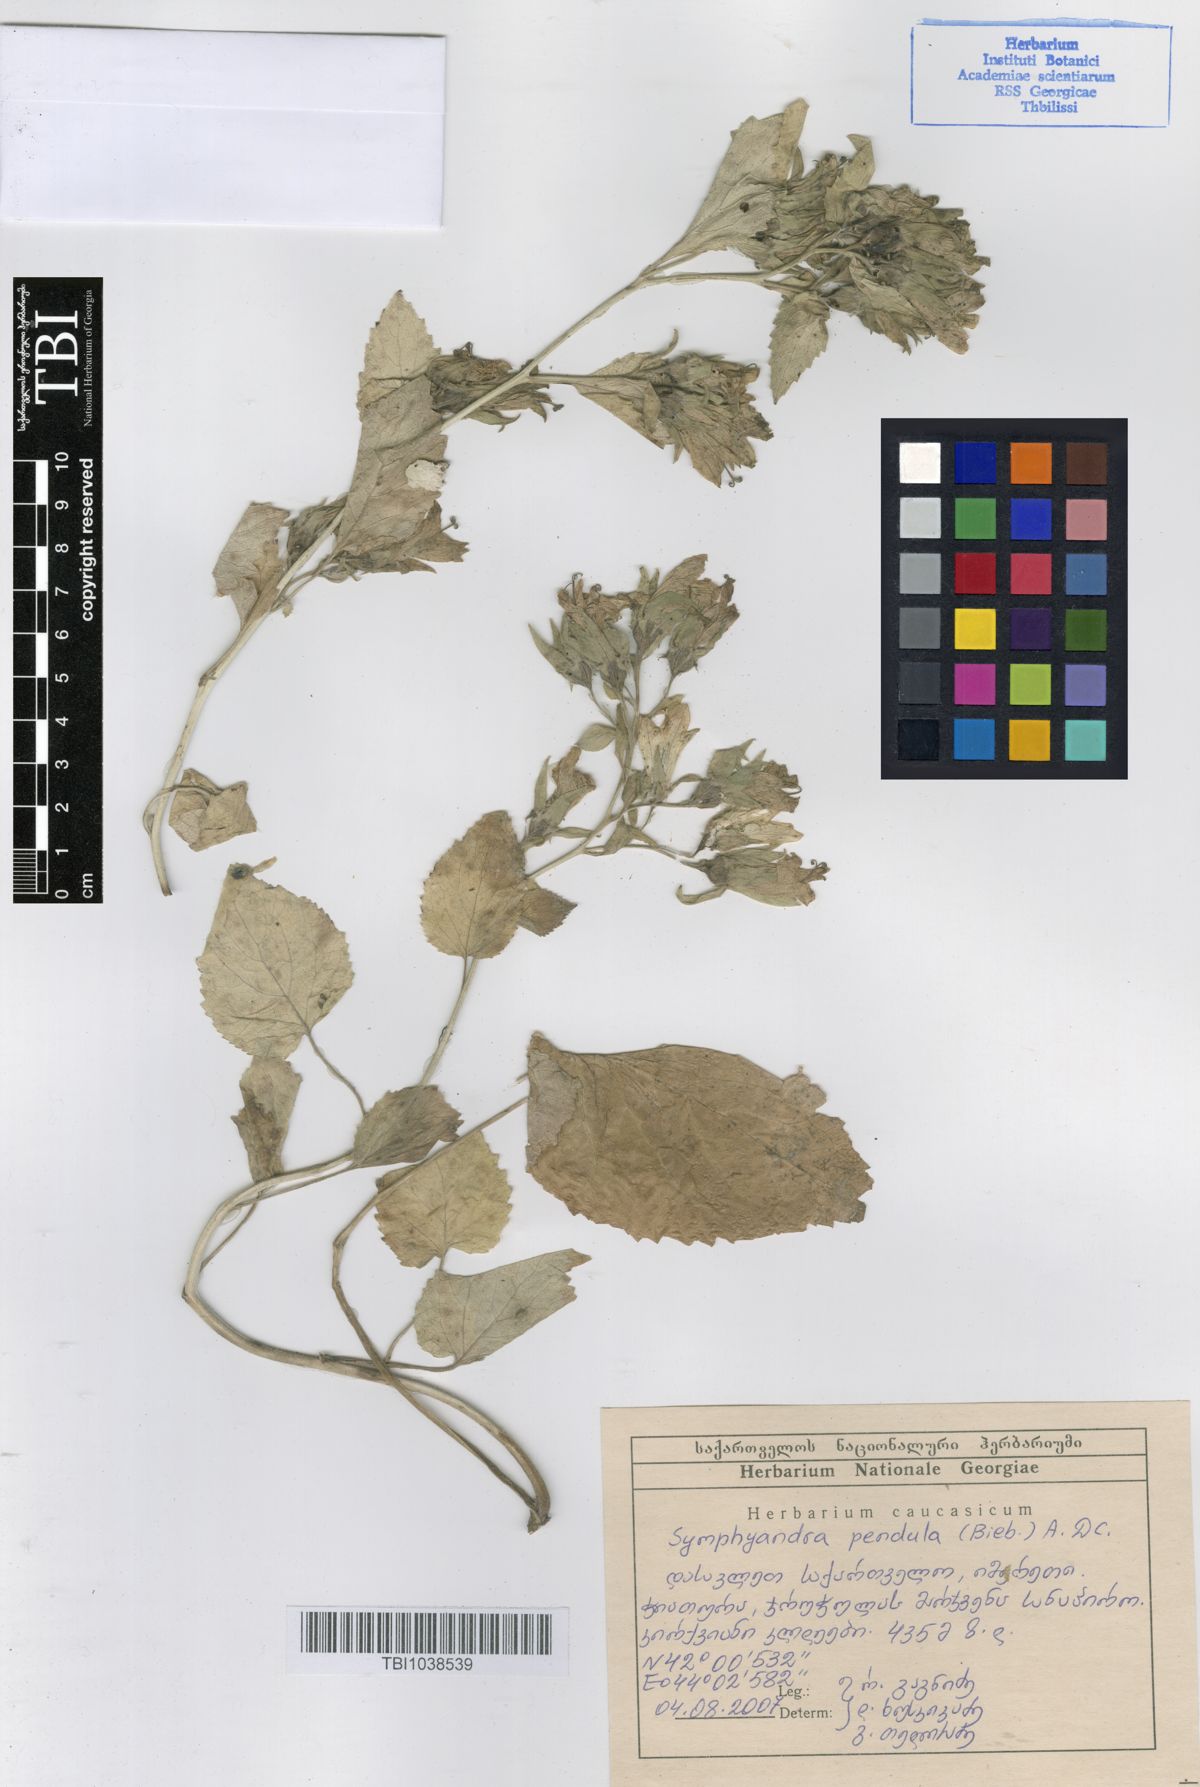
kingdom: Plantae
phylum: Tracheophyta
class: Magnoliopsida
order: Asterales
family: Campanulaceae
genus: Campanula
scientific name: Campanula pendula
